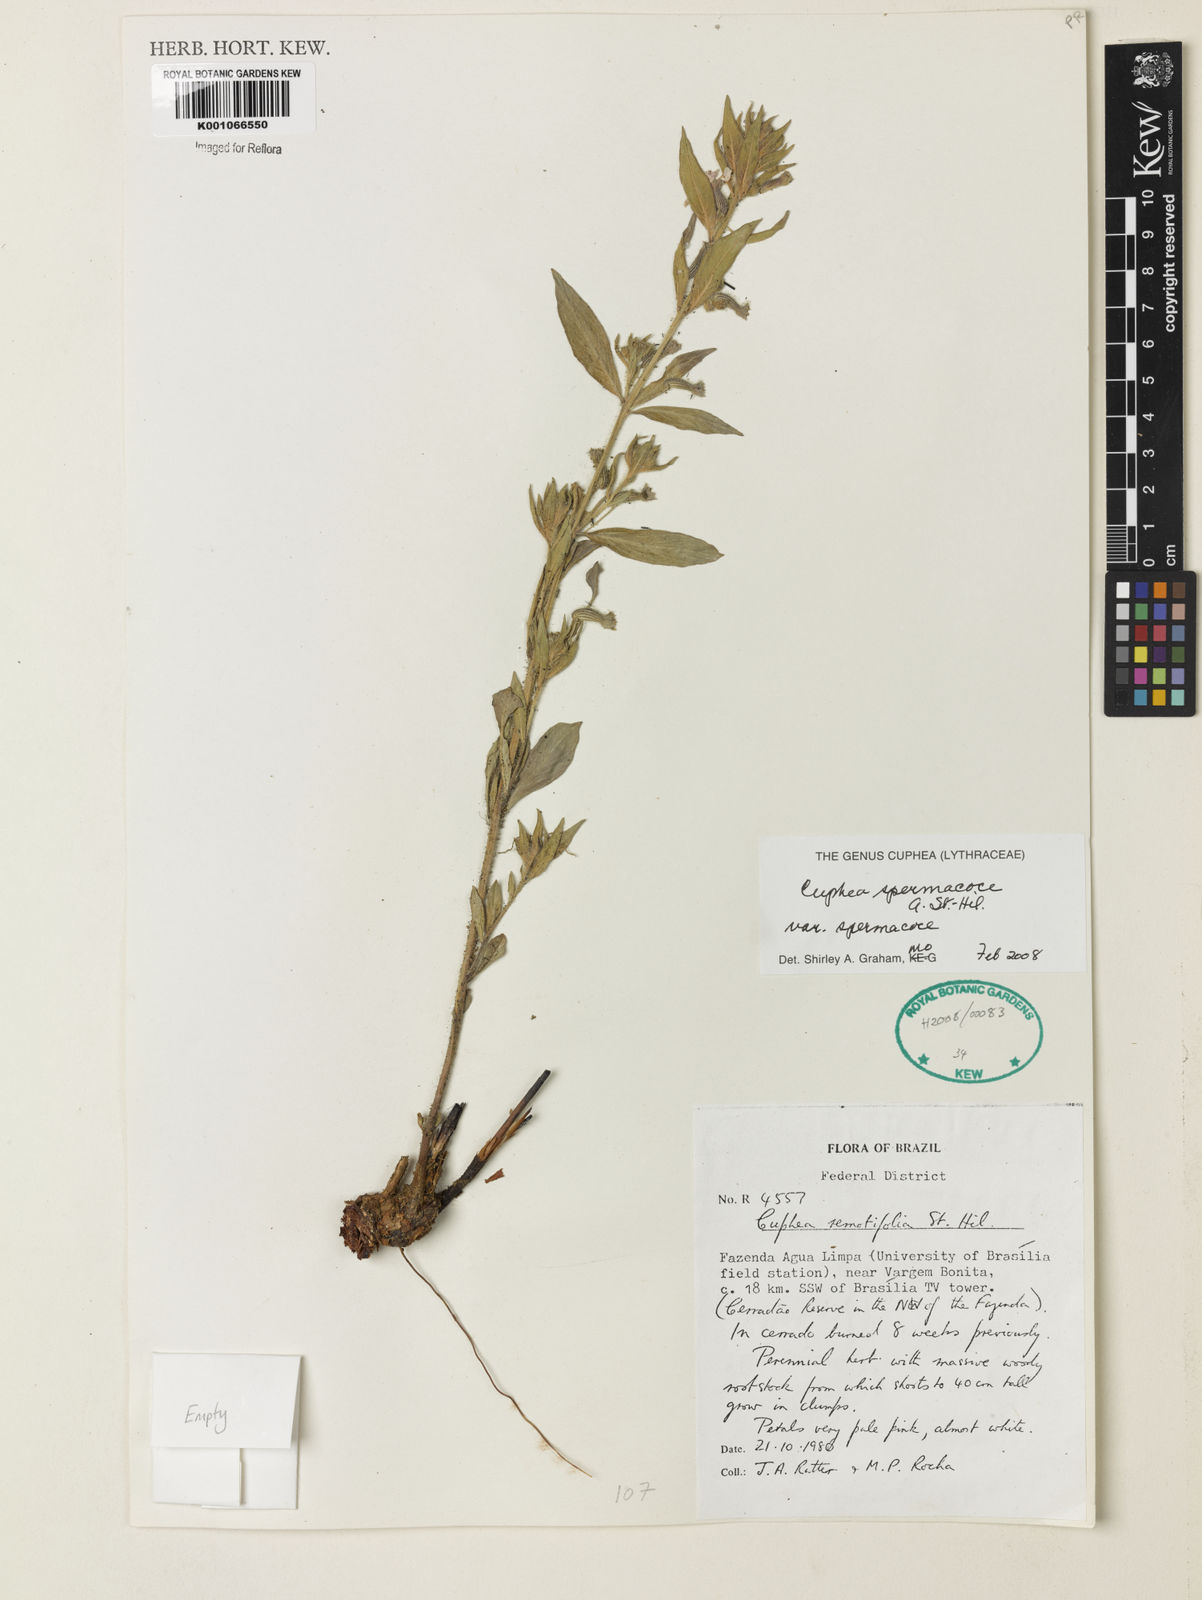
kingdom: Plantae
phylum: Tracheophyta
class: Magnoliopsida
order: Myrtales
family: Lythraceae
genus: Cuphea
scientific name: Cuphea spermacoce
